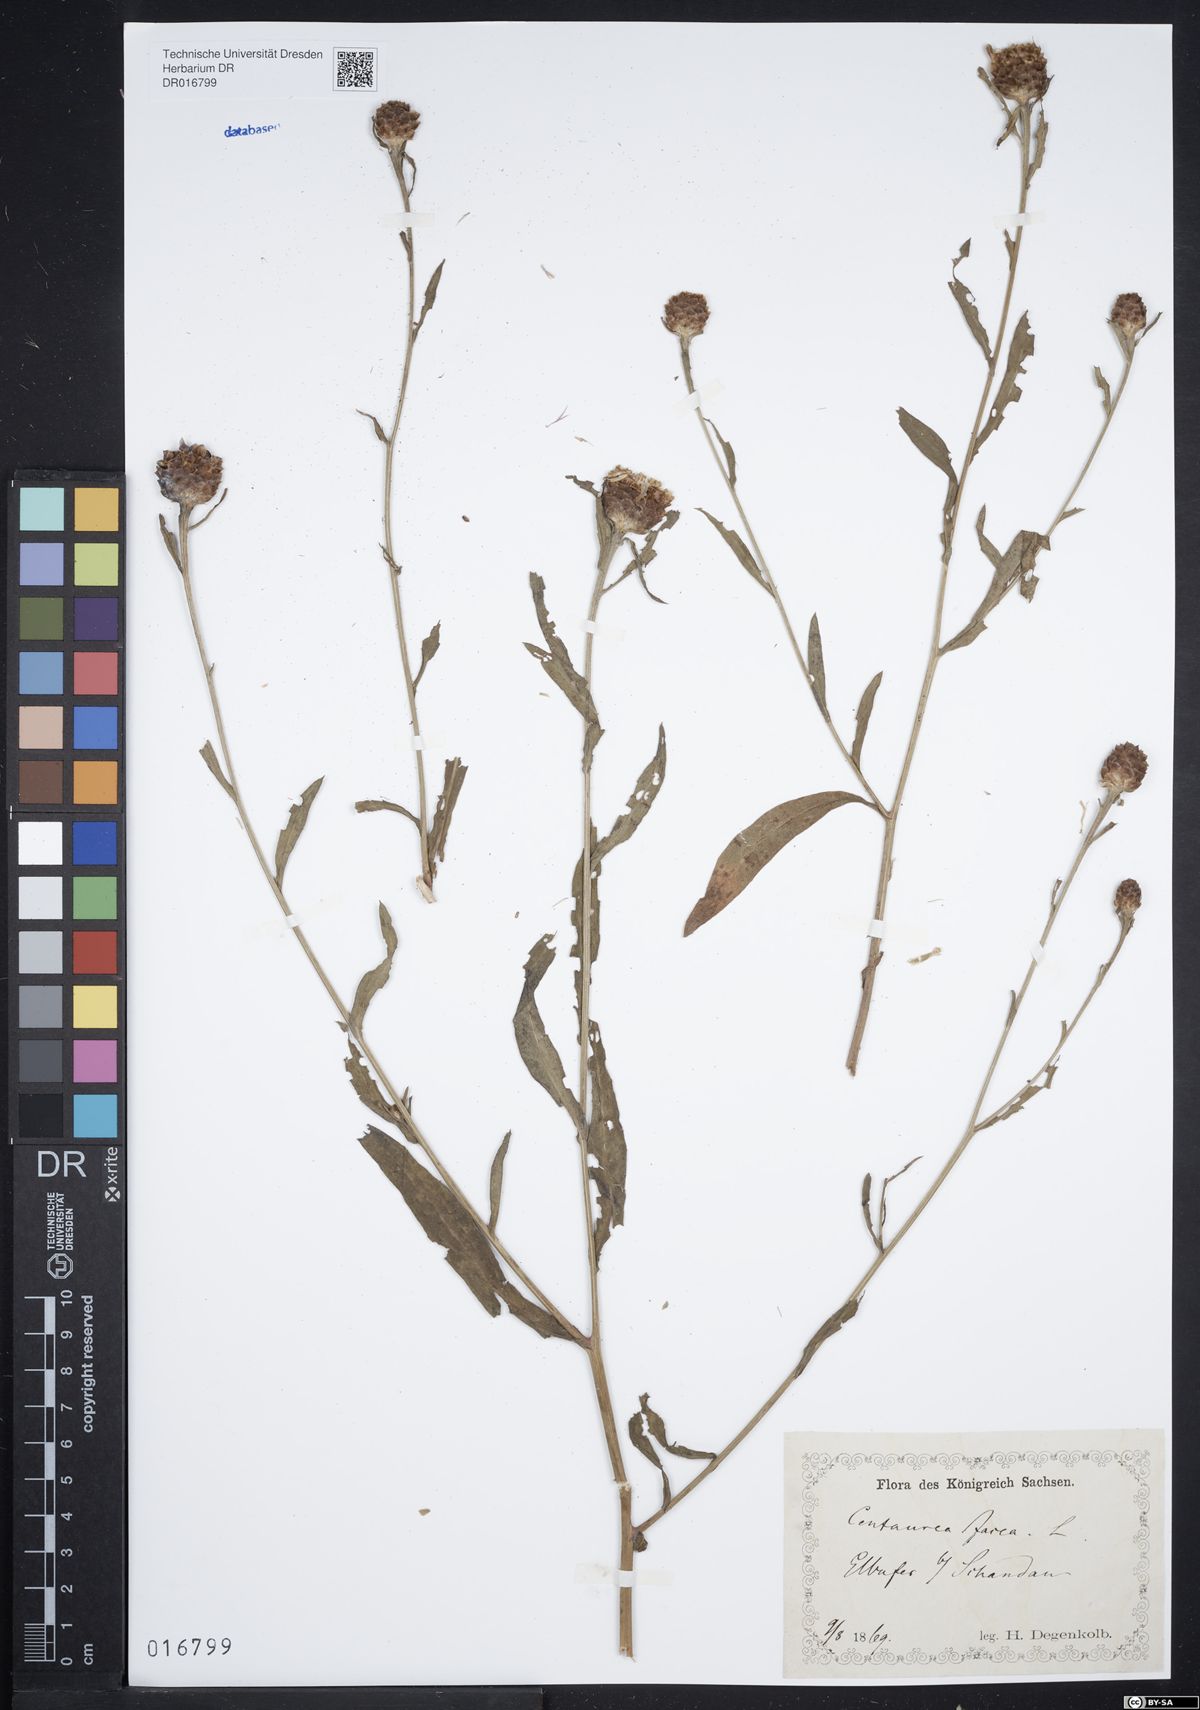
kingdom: Plantae
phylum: Tracheophyta
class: Magnoliopsida
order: Asterales
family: Asteraceae
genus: Centaurea
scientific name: Centaurea jacea
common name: Brown knapweed
